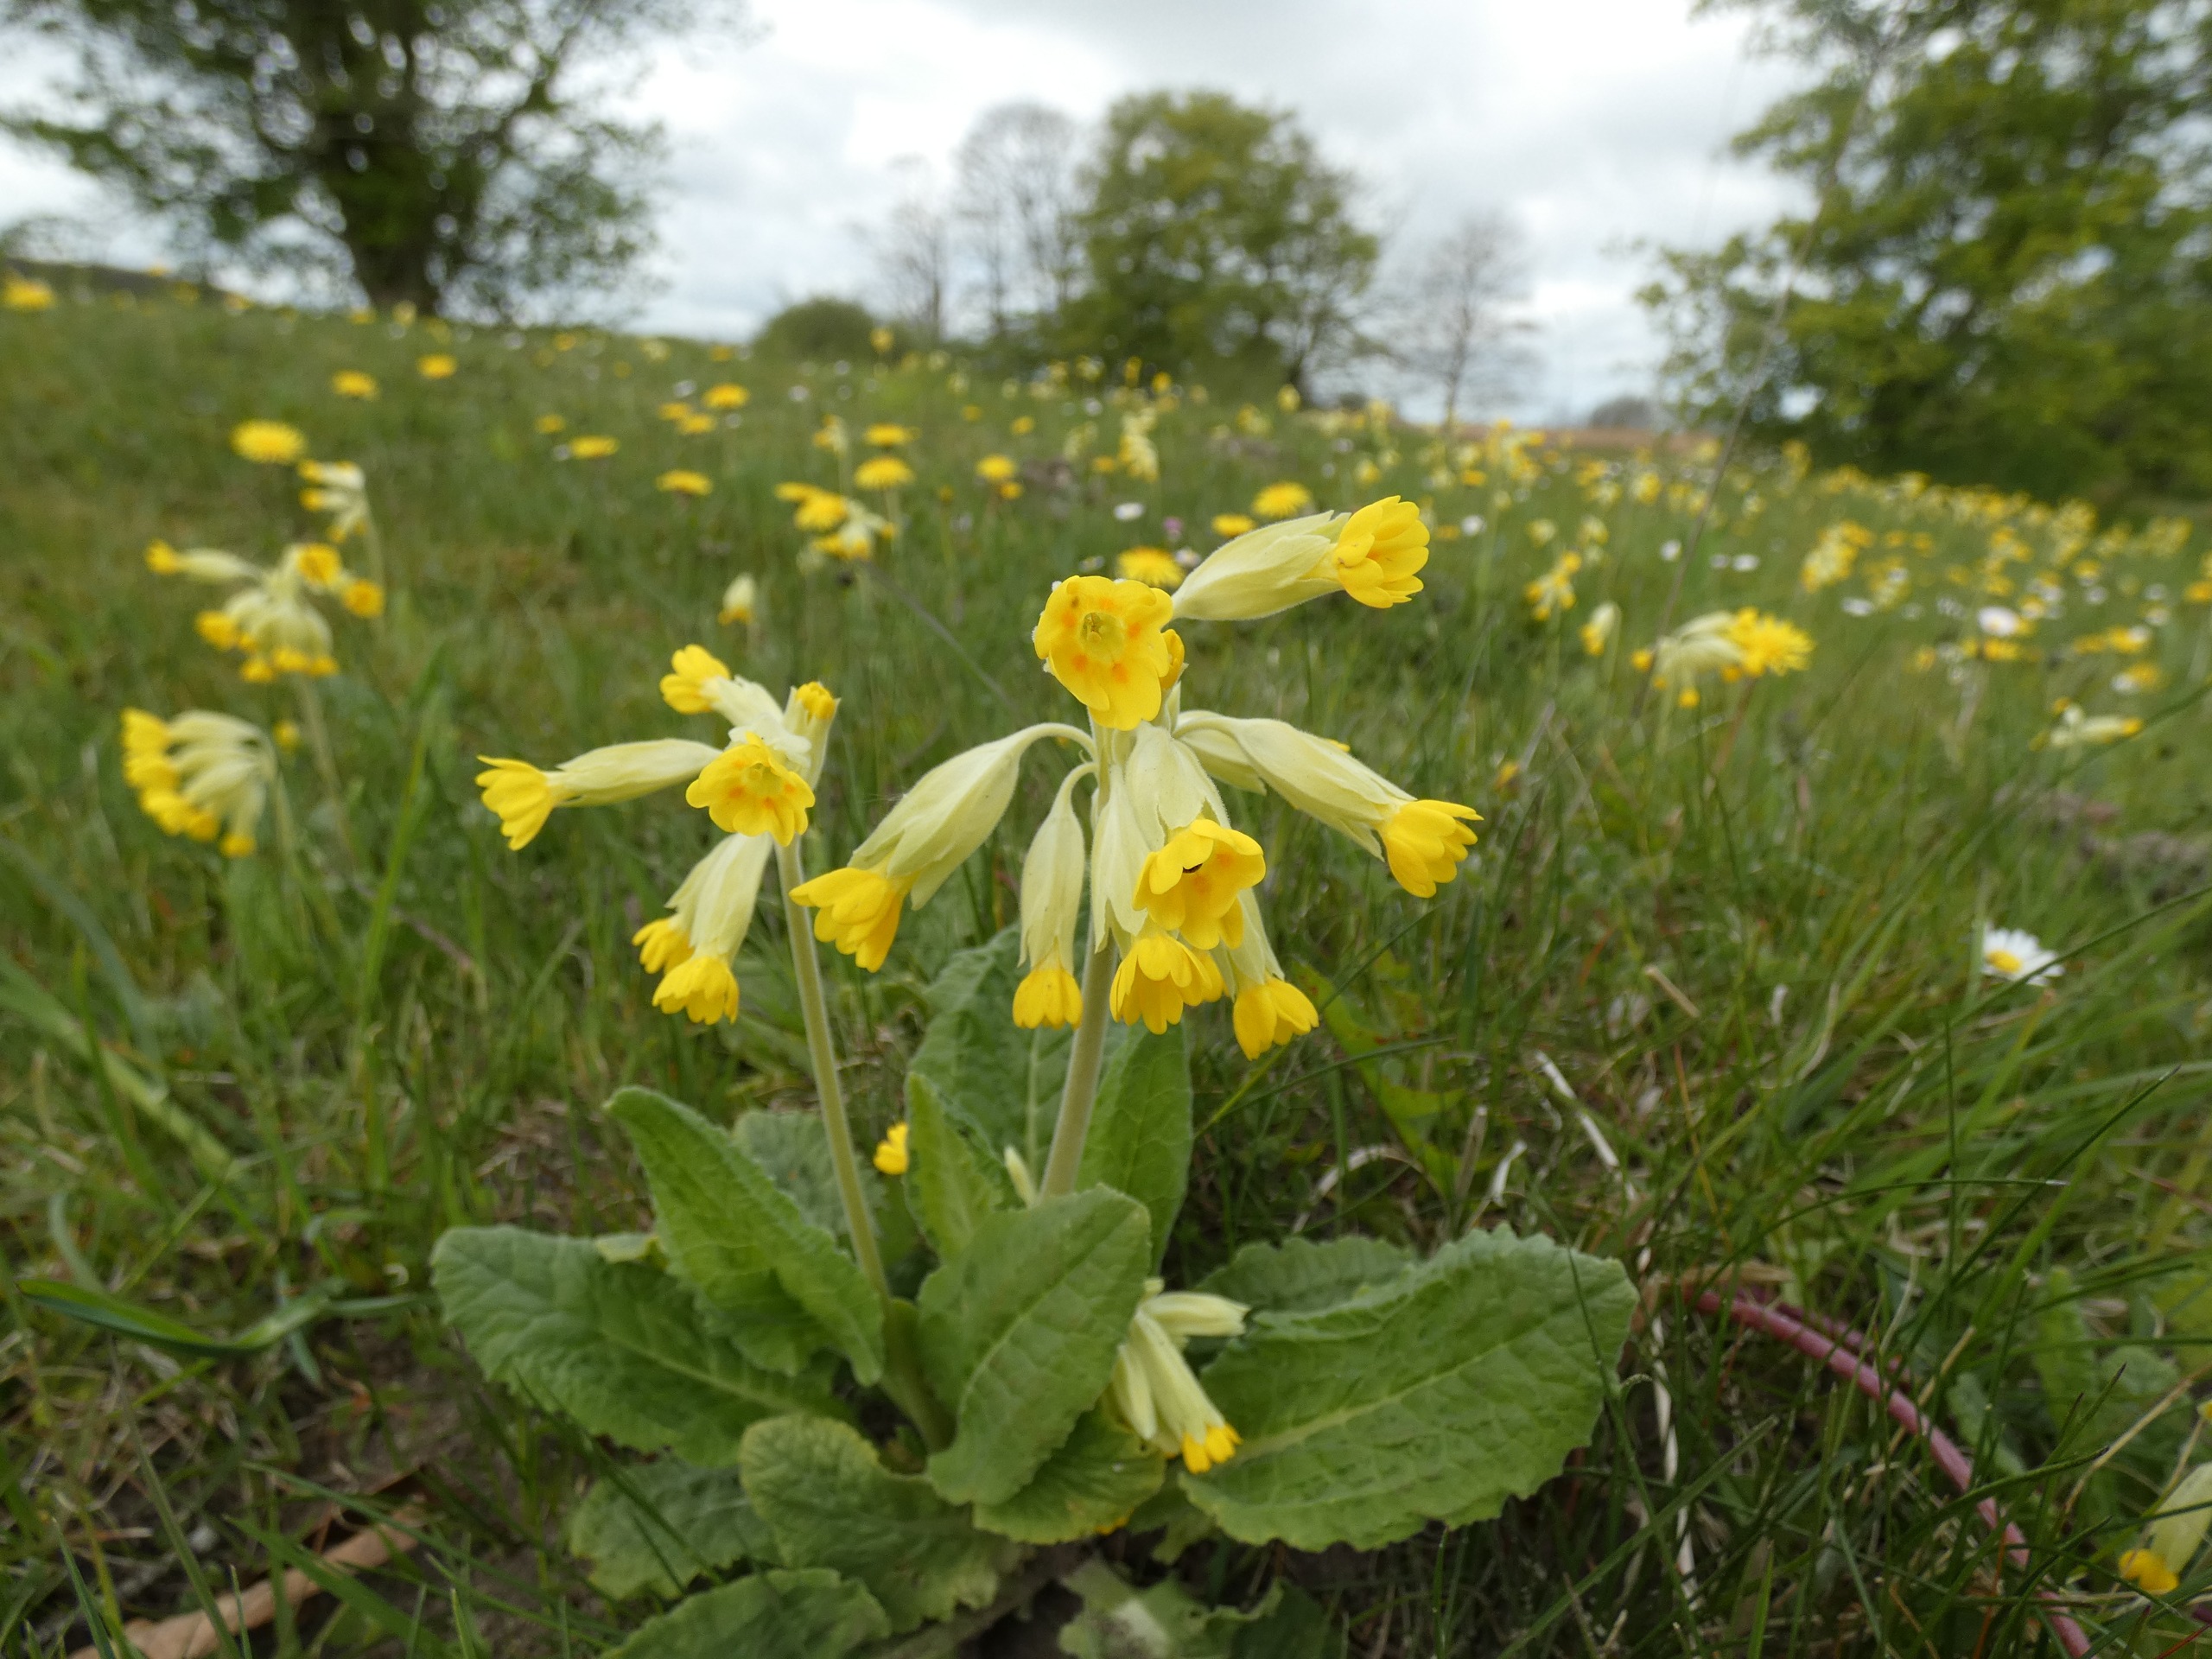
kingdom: Plantae
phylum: Tracheophyta
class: Magnoliopsida
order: Ericales
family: Primulaceae
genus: Primula
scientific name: Primula veris
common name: Hulkravet kodriver
